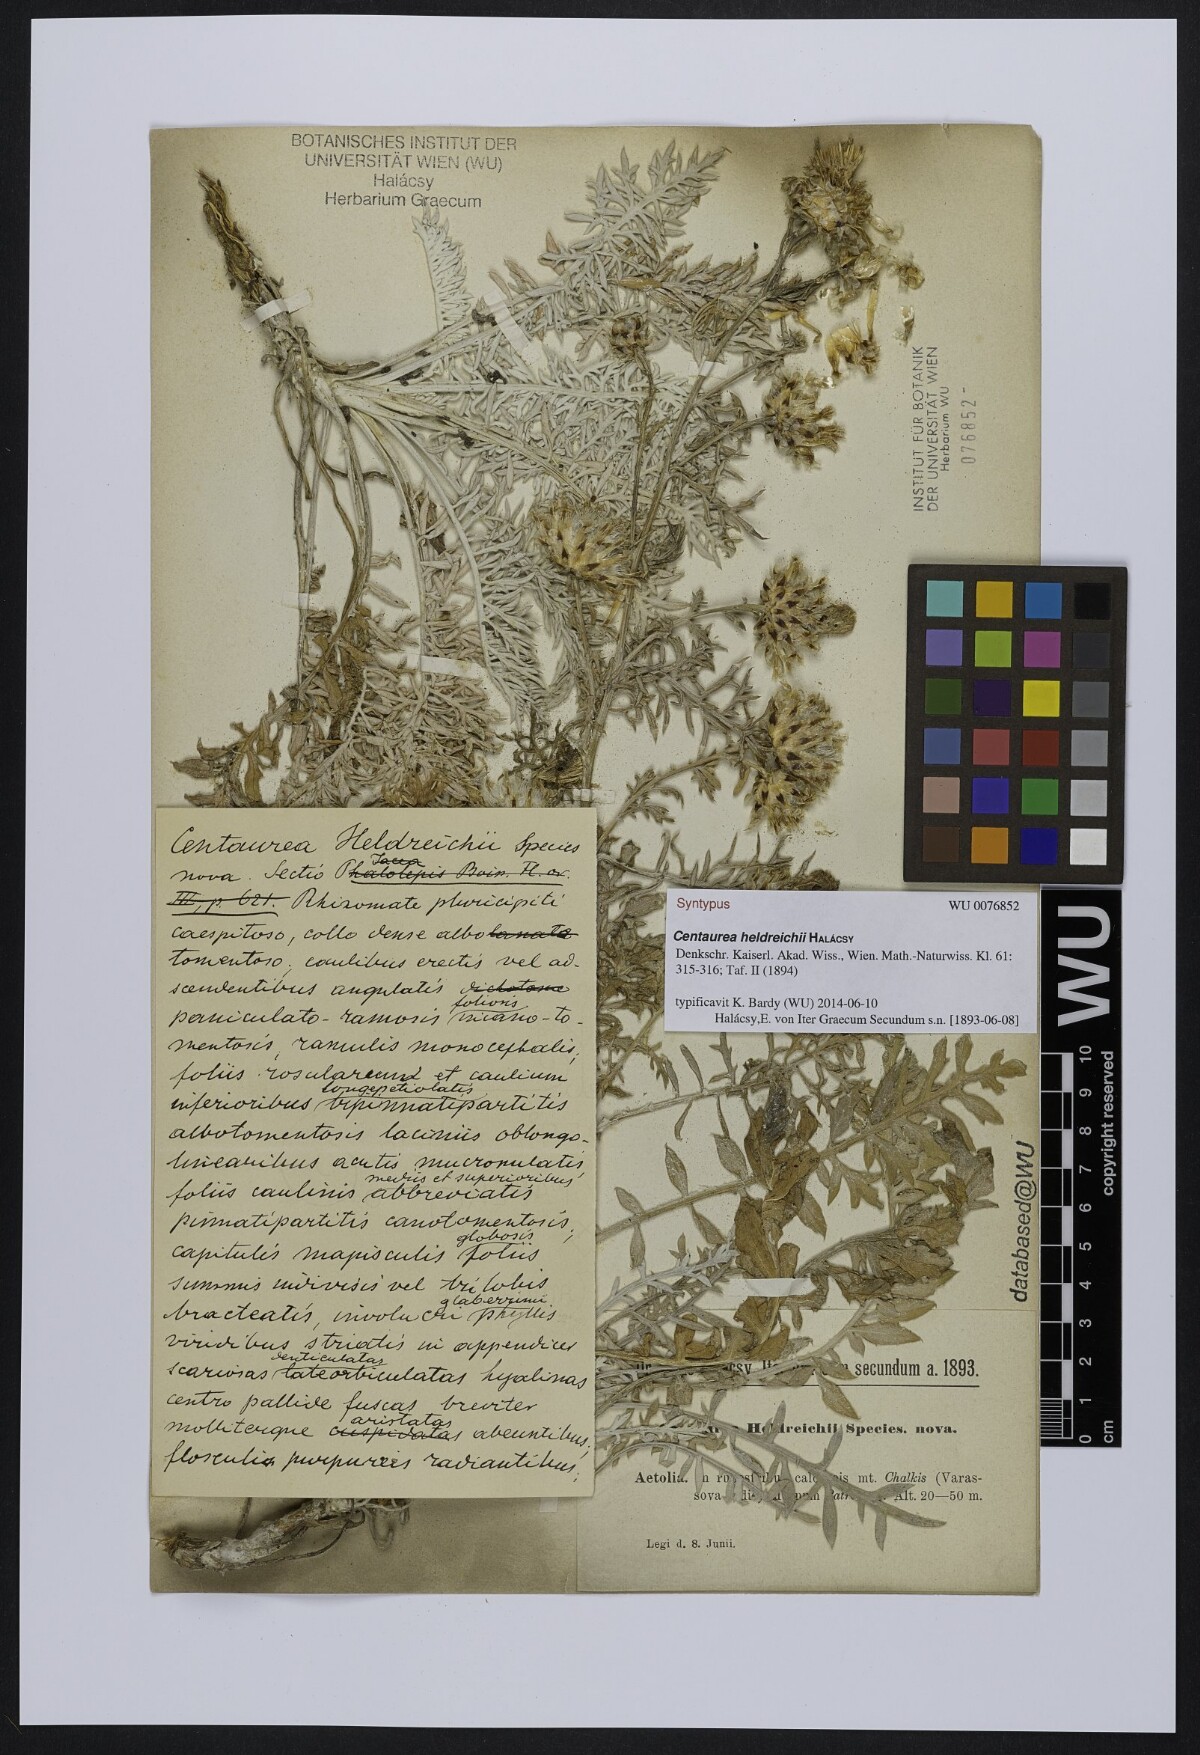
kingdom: Plantae
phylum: Tracheophyta
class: Magnoliopsida
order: Asterales
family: Asteraceae
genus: Centaurea
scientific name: Centaurea heldreichii
